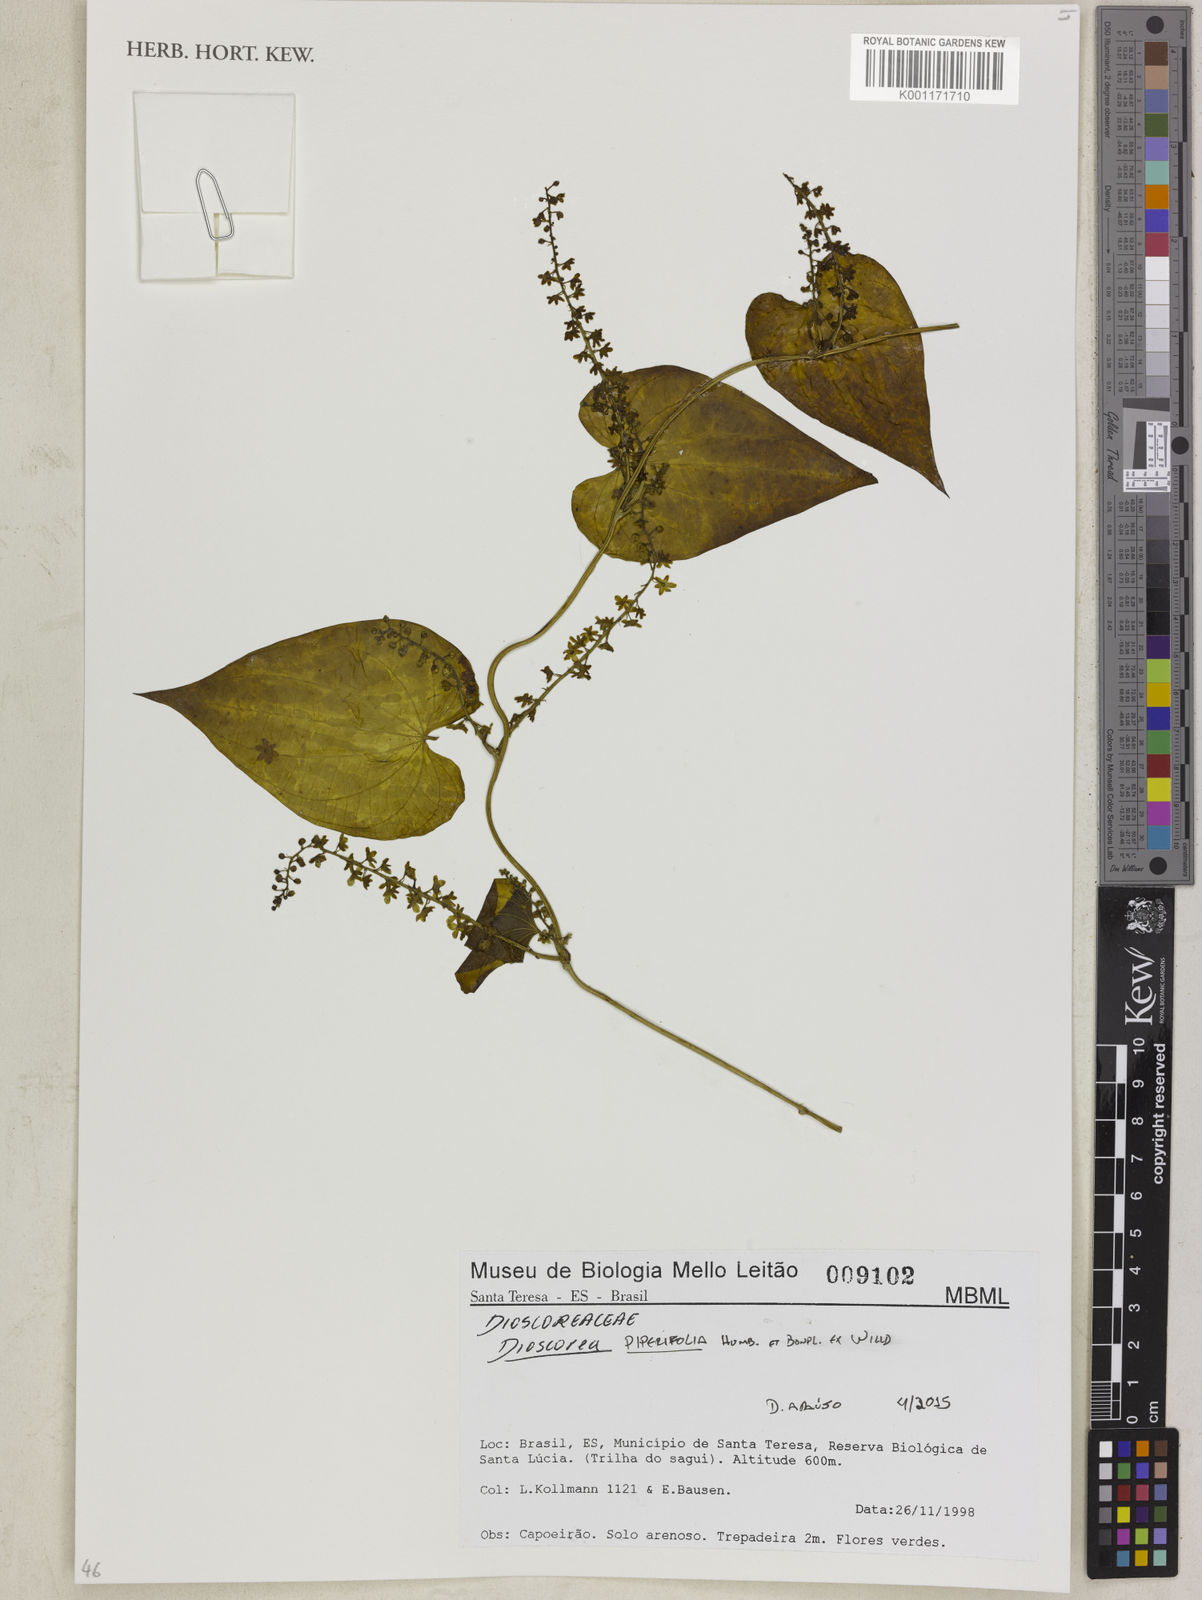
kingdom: Plantae
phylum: Tracheophyta
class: Liliopsida
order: Dioscoreales
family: Dioscoreaceae
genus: Dioscorea
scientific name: Dioscorea piperifolia
